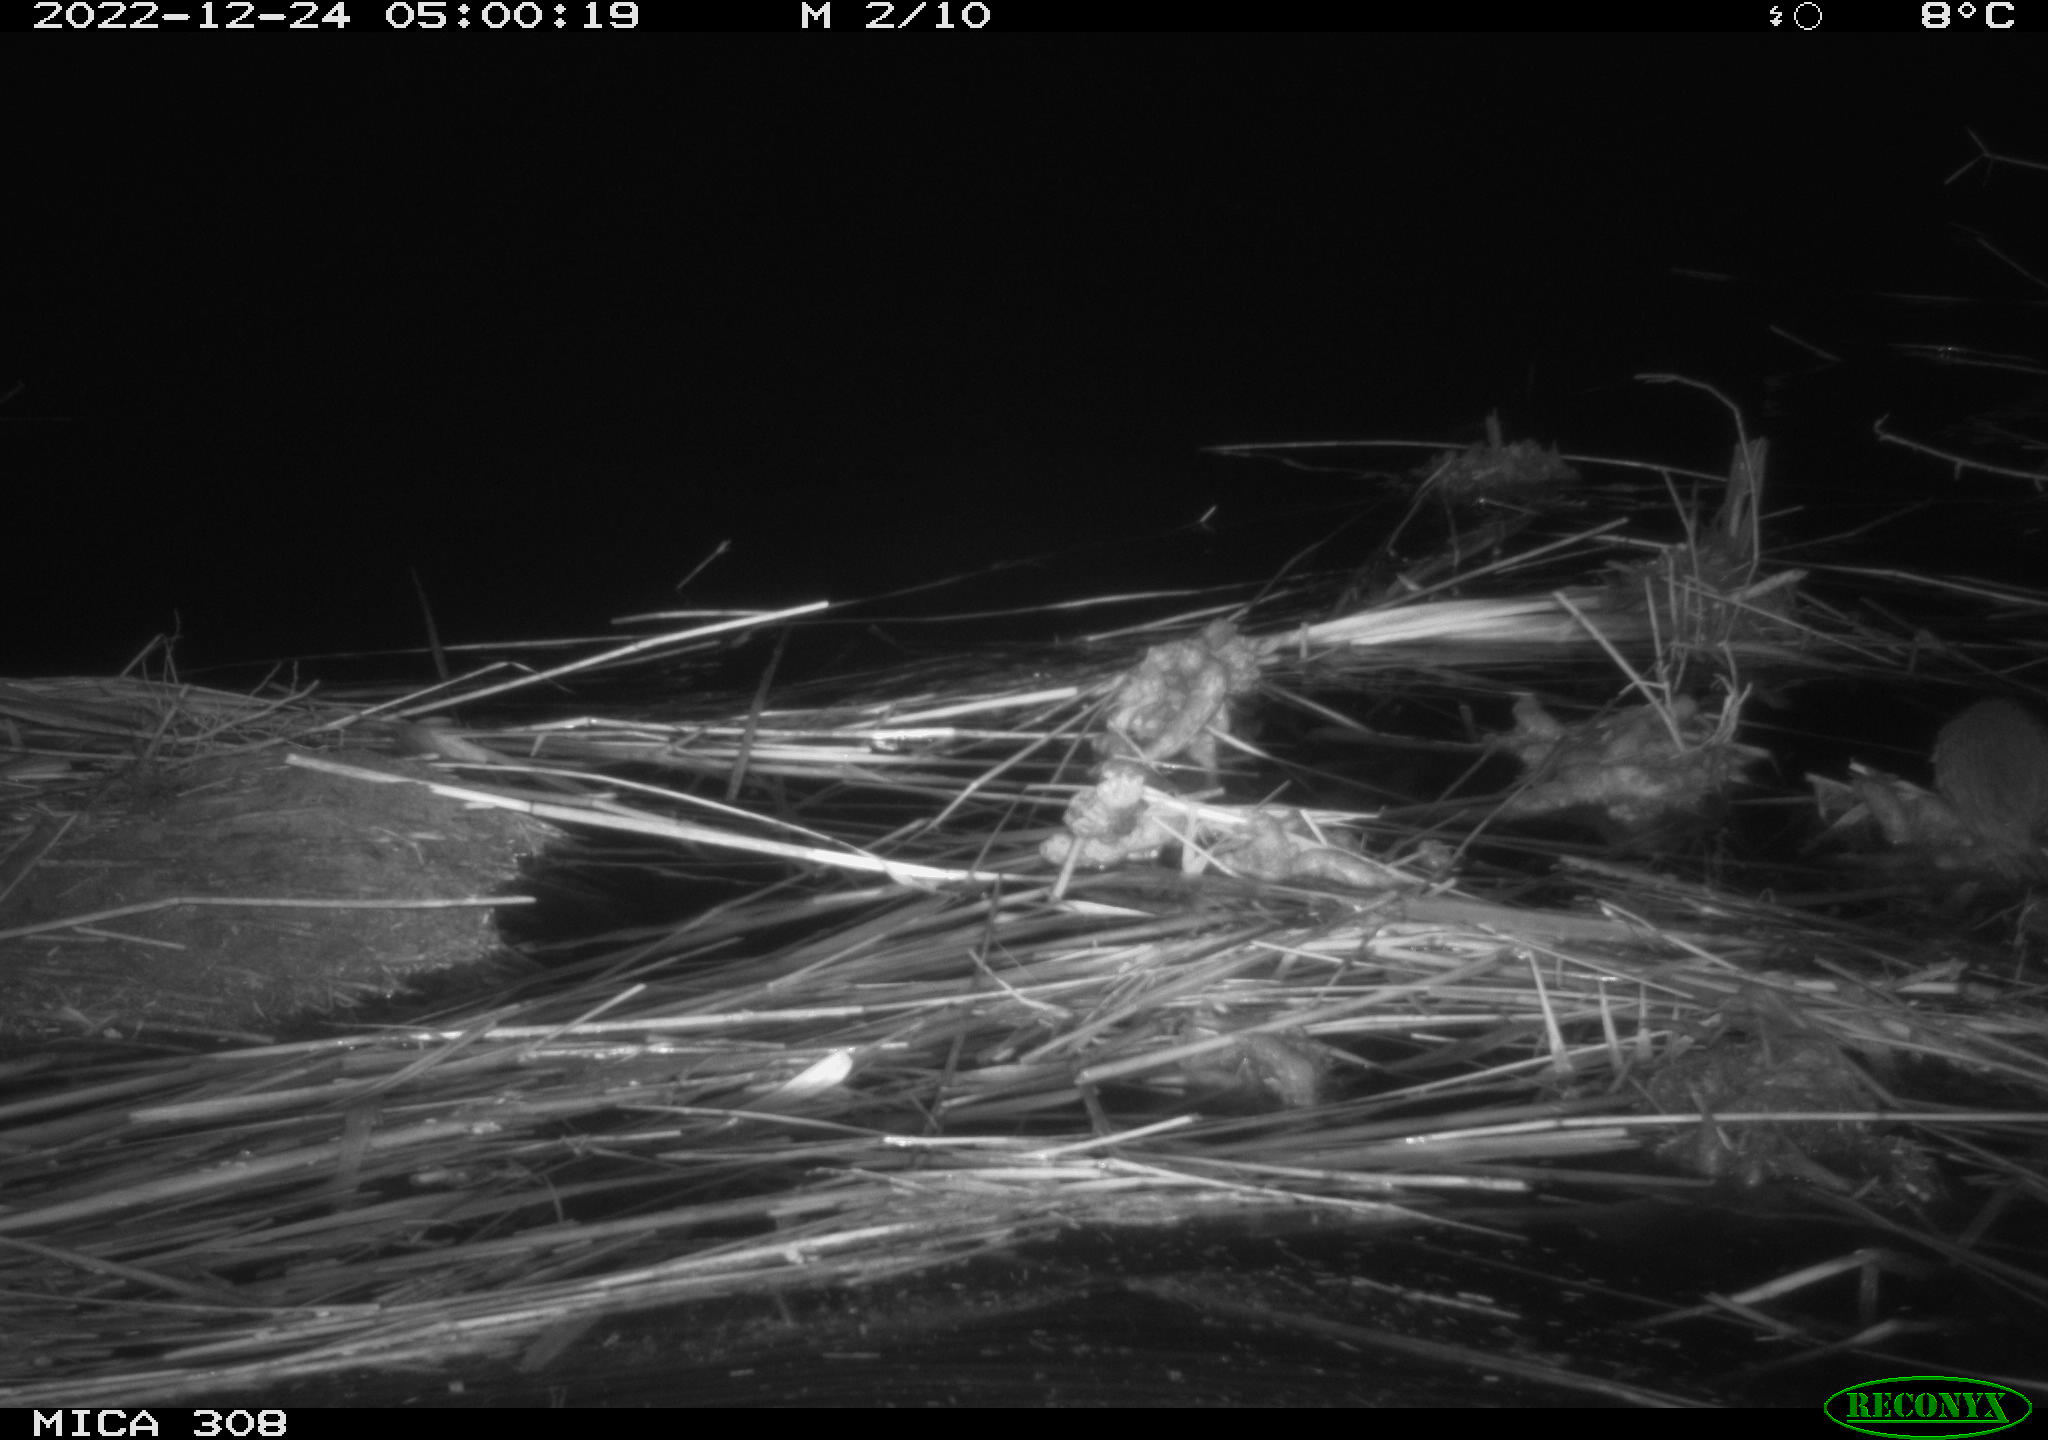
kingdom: Animalia
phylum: Chordata
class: Mammalia
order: Rodentia
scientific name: Rodentia
